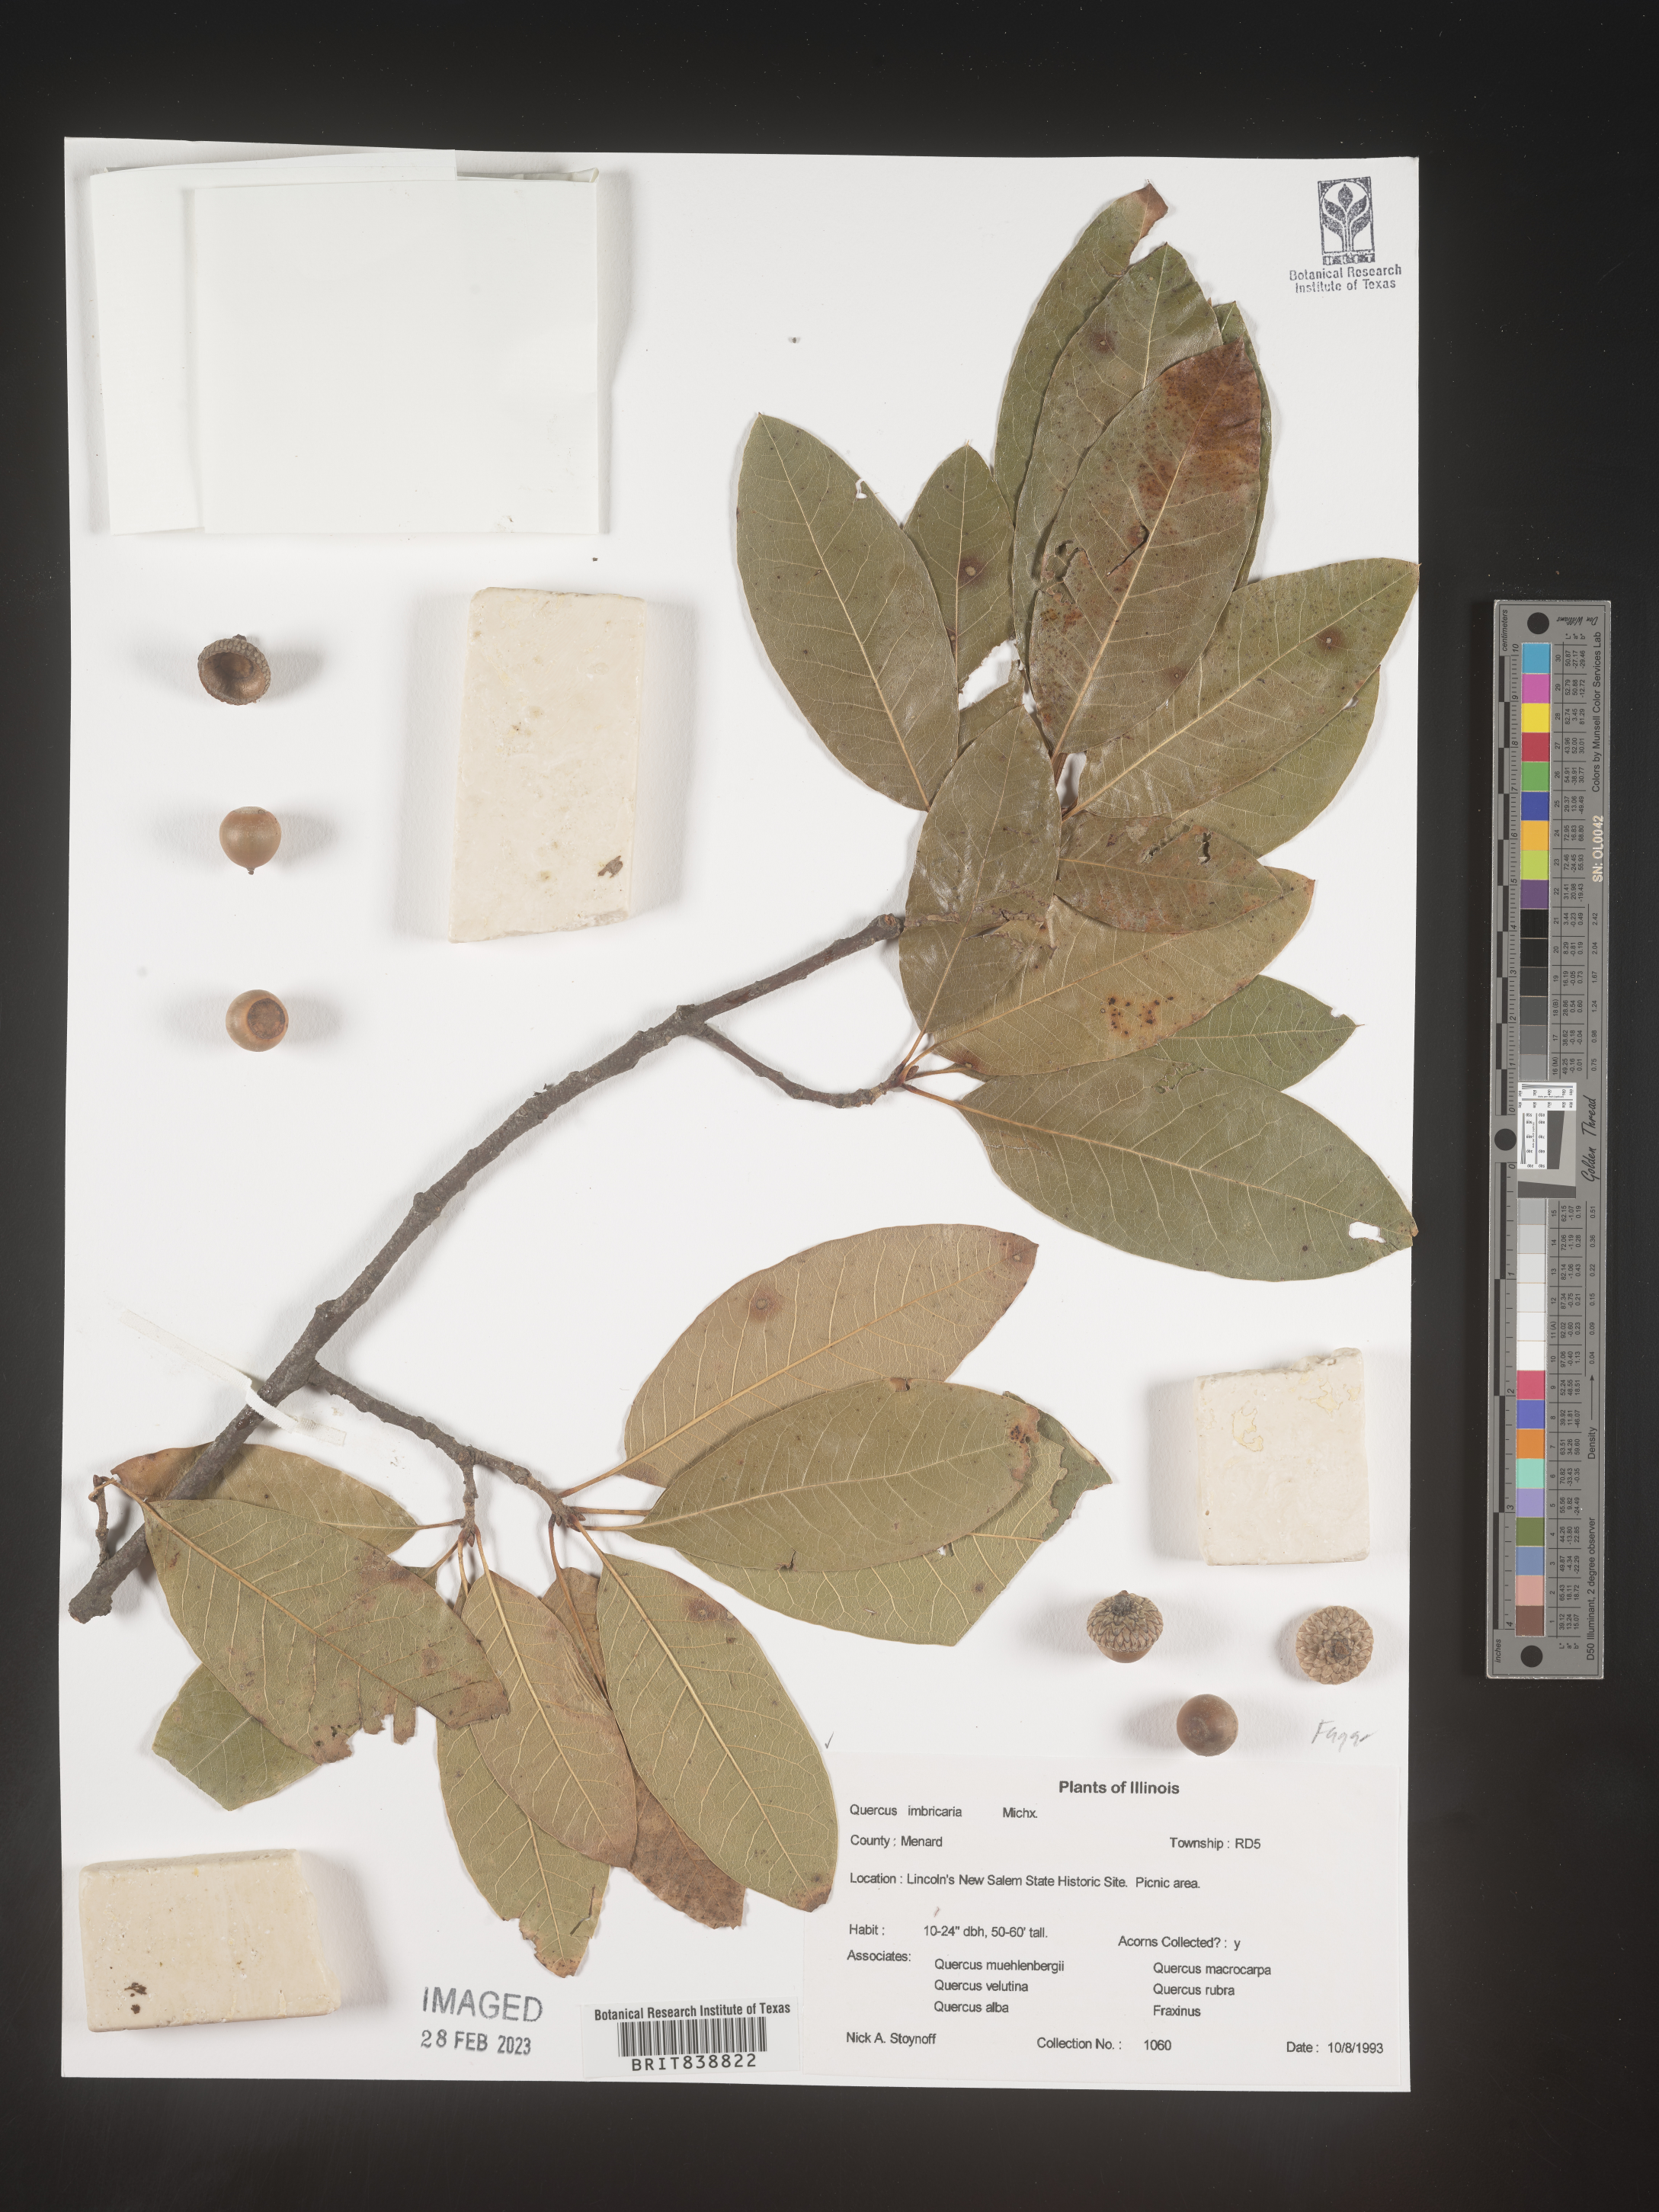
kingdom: Plantae
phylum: Tracheophyta
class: Magnoliopsida
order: Fagales
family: Fagaceae
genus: Quercus
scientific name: Quercus imbricaria
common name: Shingle oak
